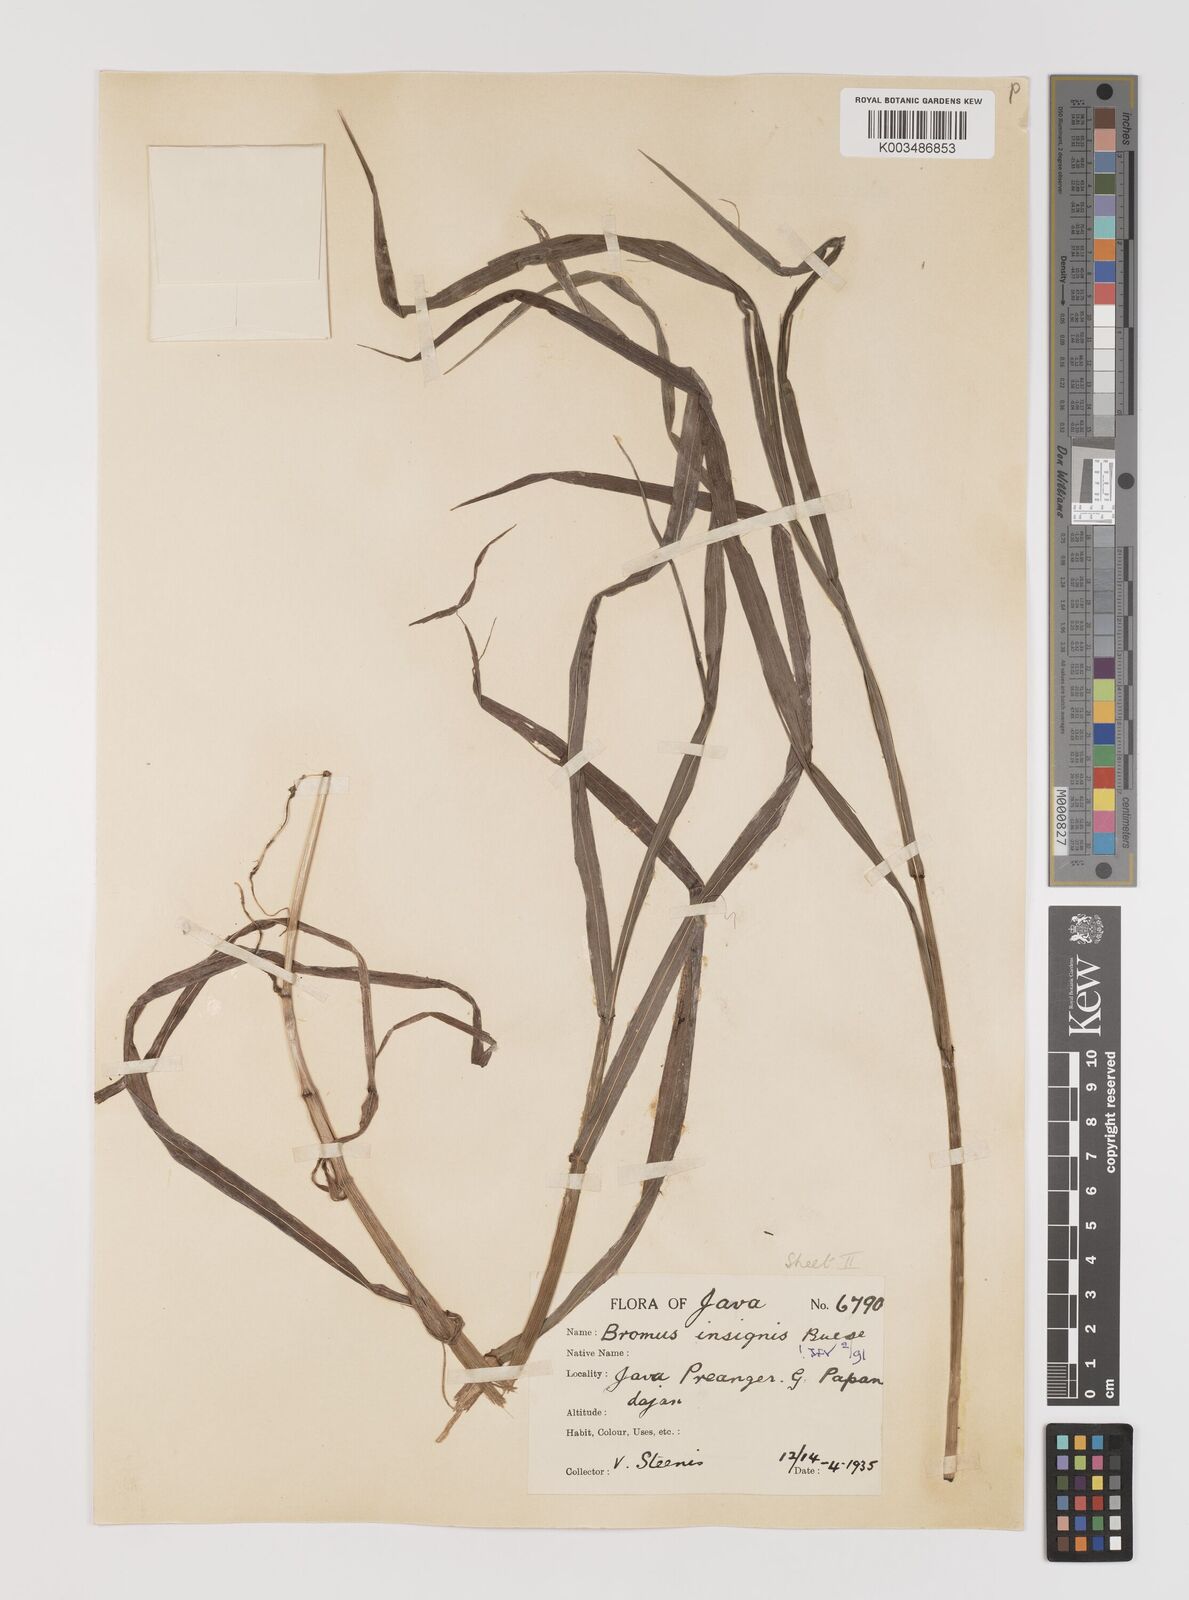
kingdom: Plantae
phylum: Tracheophyta
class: Liliopsida
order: Poales
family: Poaceae
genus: Bromus
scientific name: Bromus insignis
